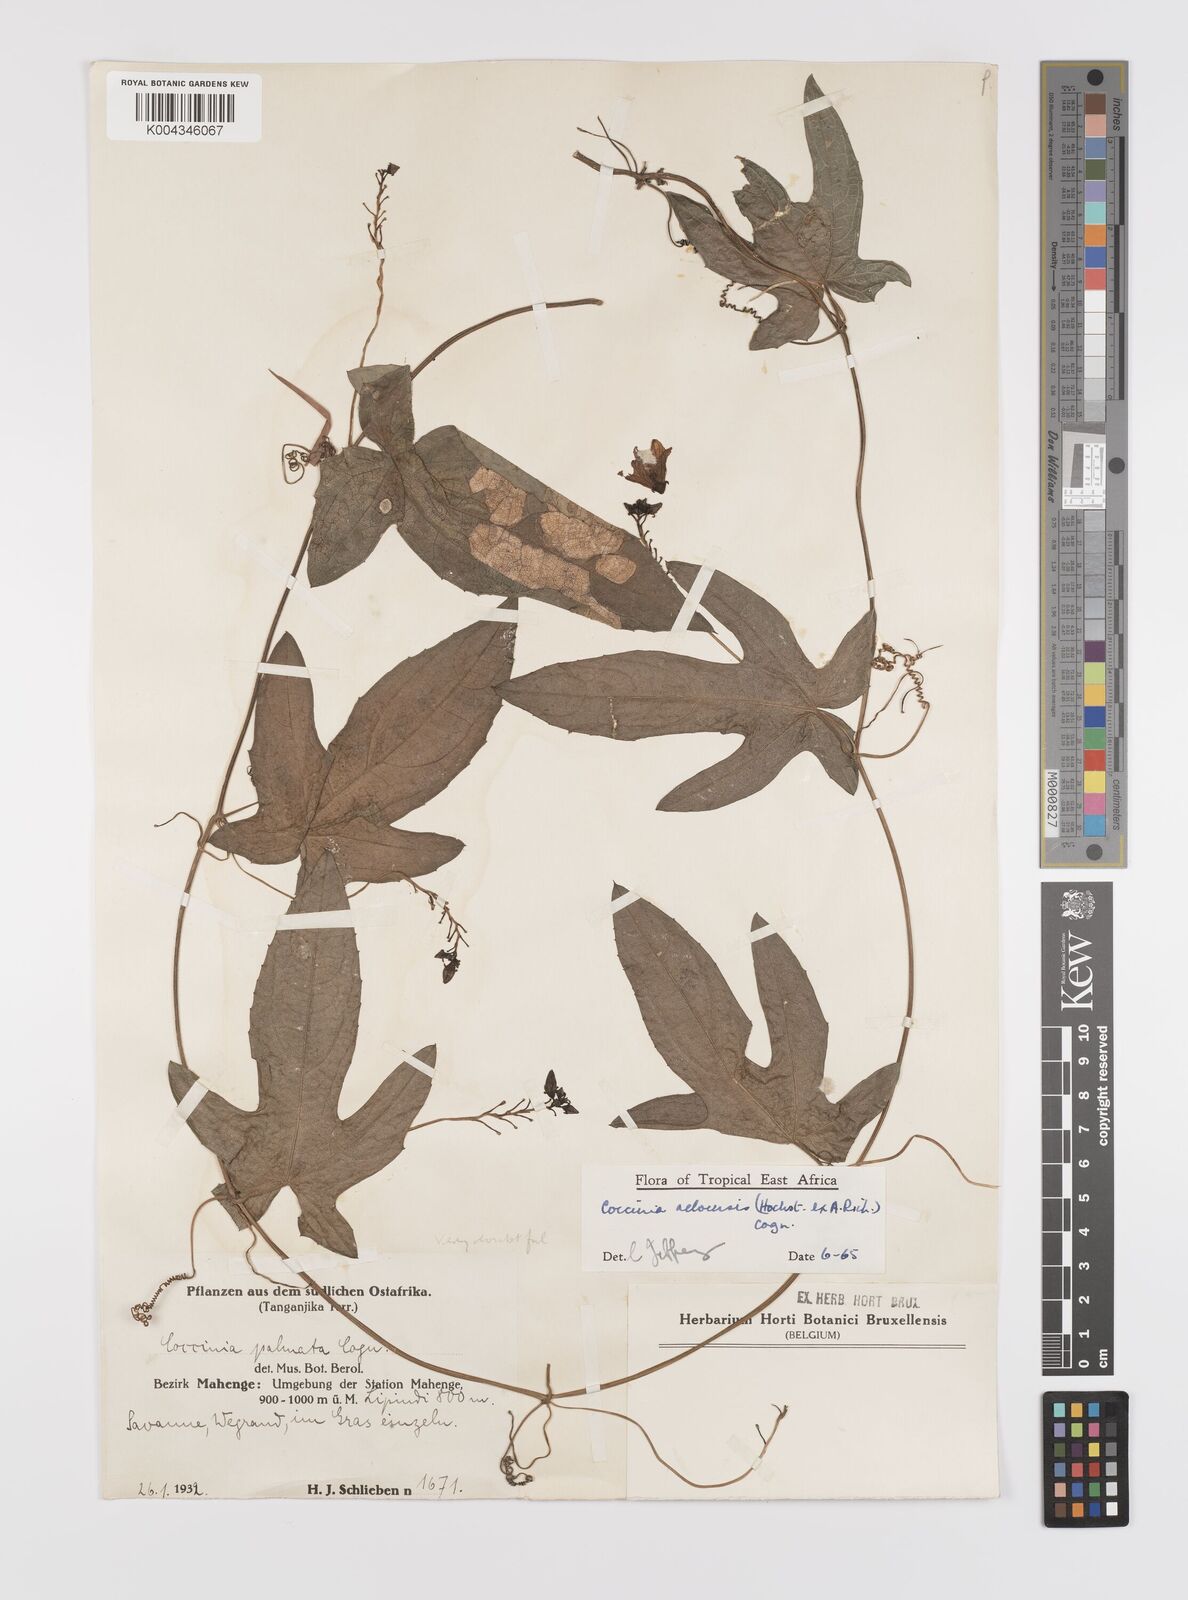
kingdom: Plantae
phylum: Tracheophyta
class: Magnoliopsida
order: Cucurbitales
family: Cucurbitaceae
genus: Coccinia
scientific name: Coccinia adoensis
